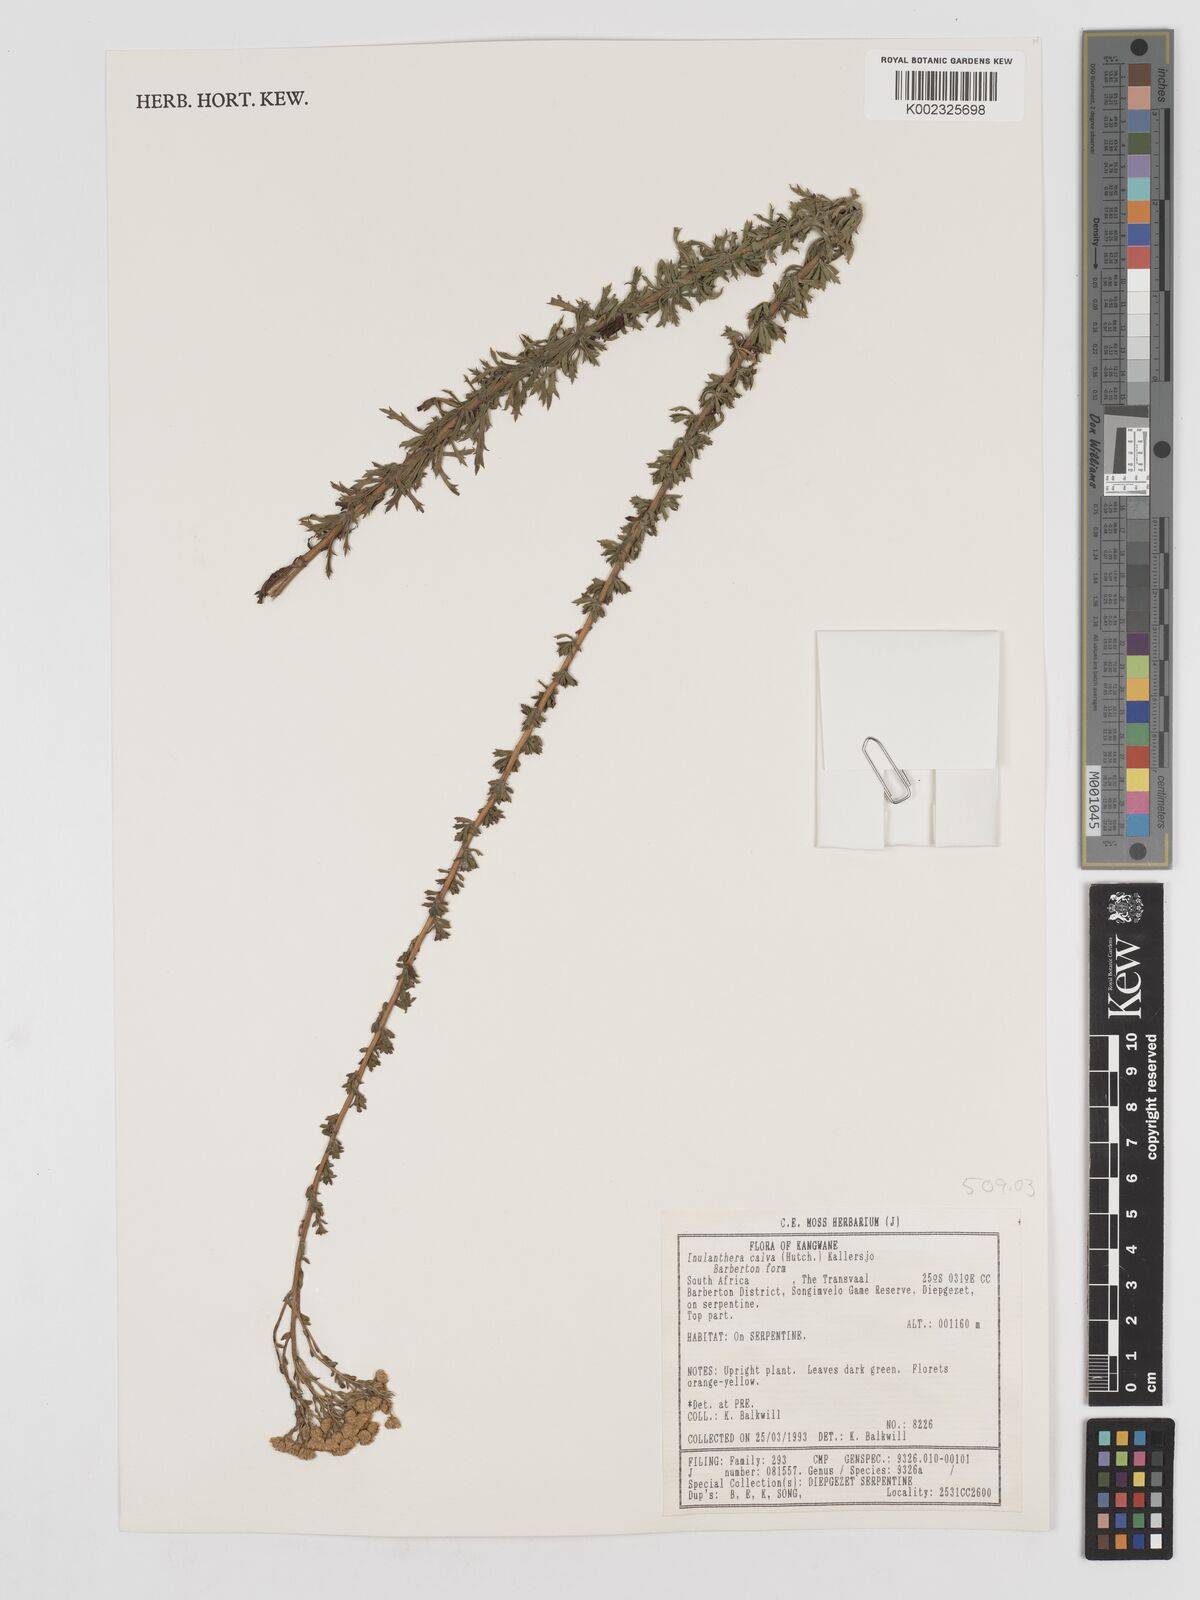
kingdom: Plantae
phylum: Tracheophyta
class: Magnoliopsida
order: Asterales
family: Asteraceae
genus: Inulanthera
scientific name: Inulanthera dregeana
